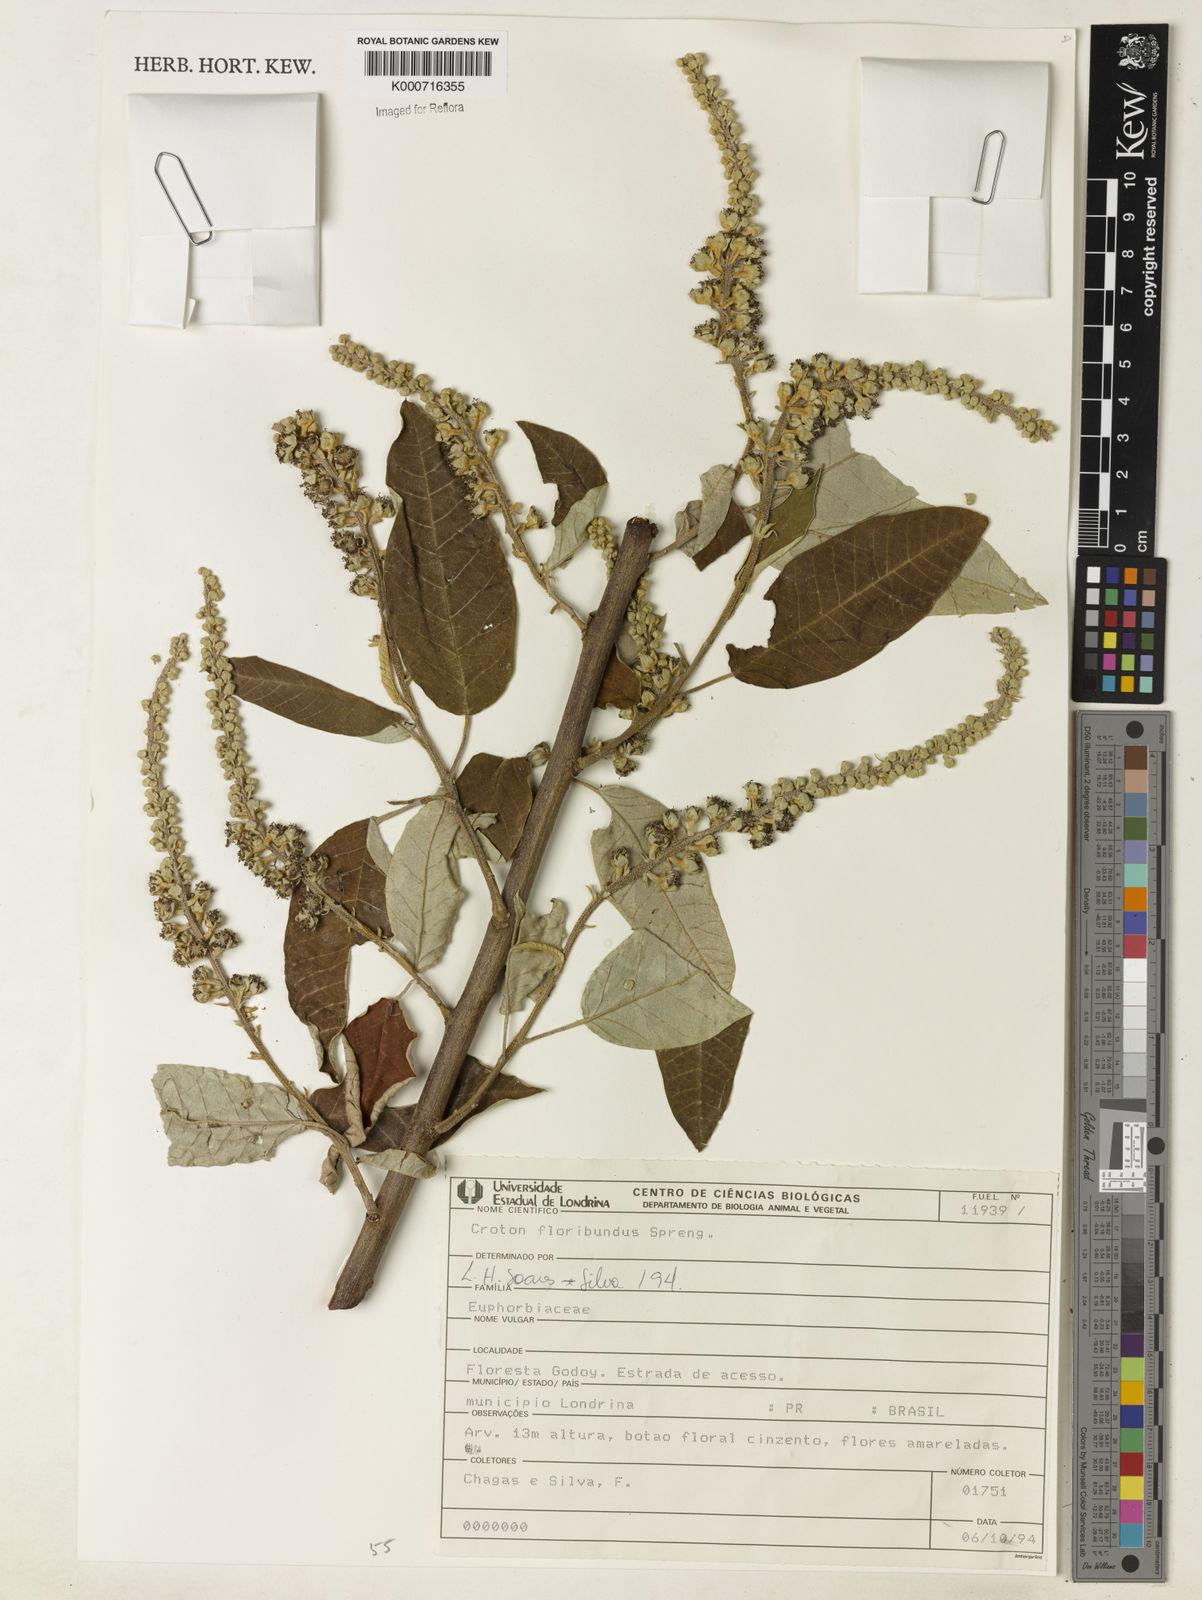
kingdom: Plantae
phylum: Tracheophyta
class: Magnoliopsida
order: Malpighiales
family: Euphorbiaceae
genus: Croton
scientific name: Croton floribundus
